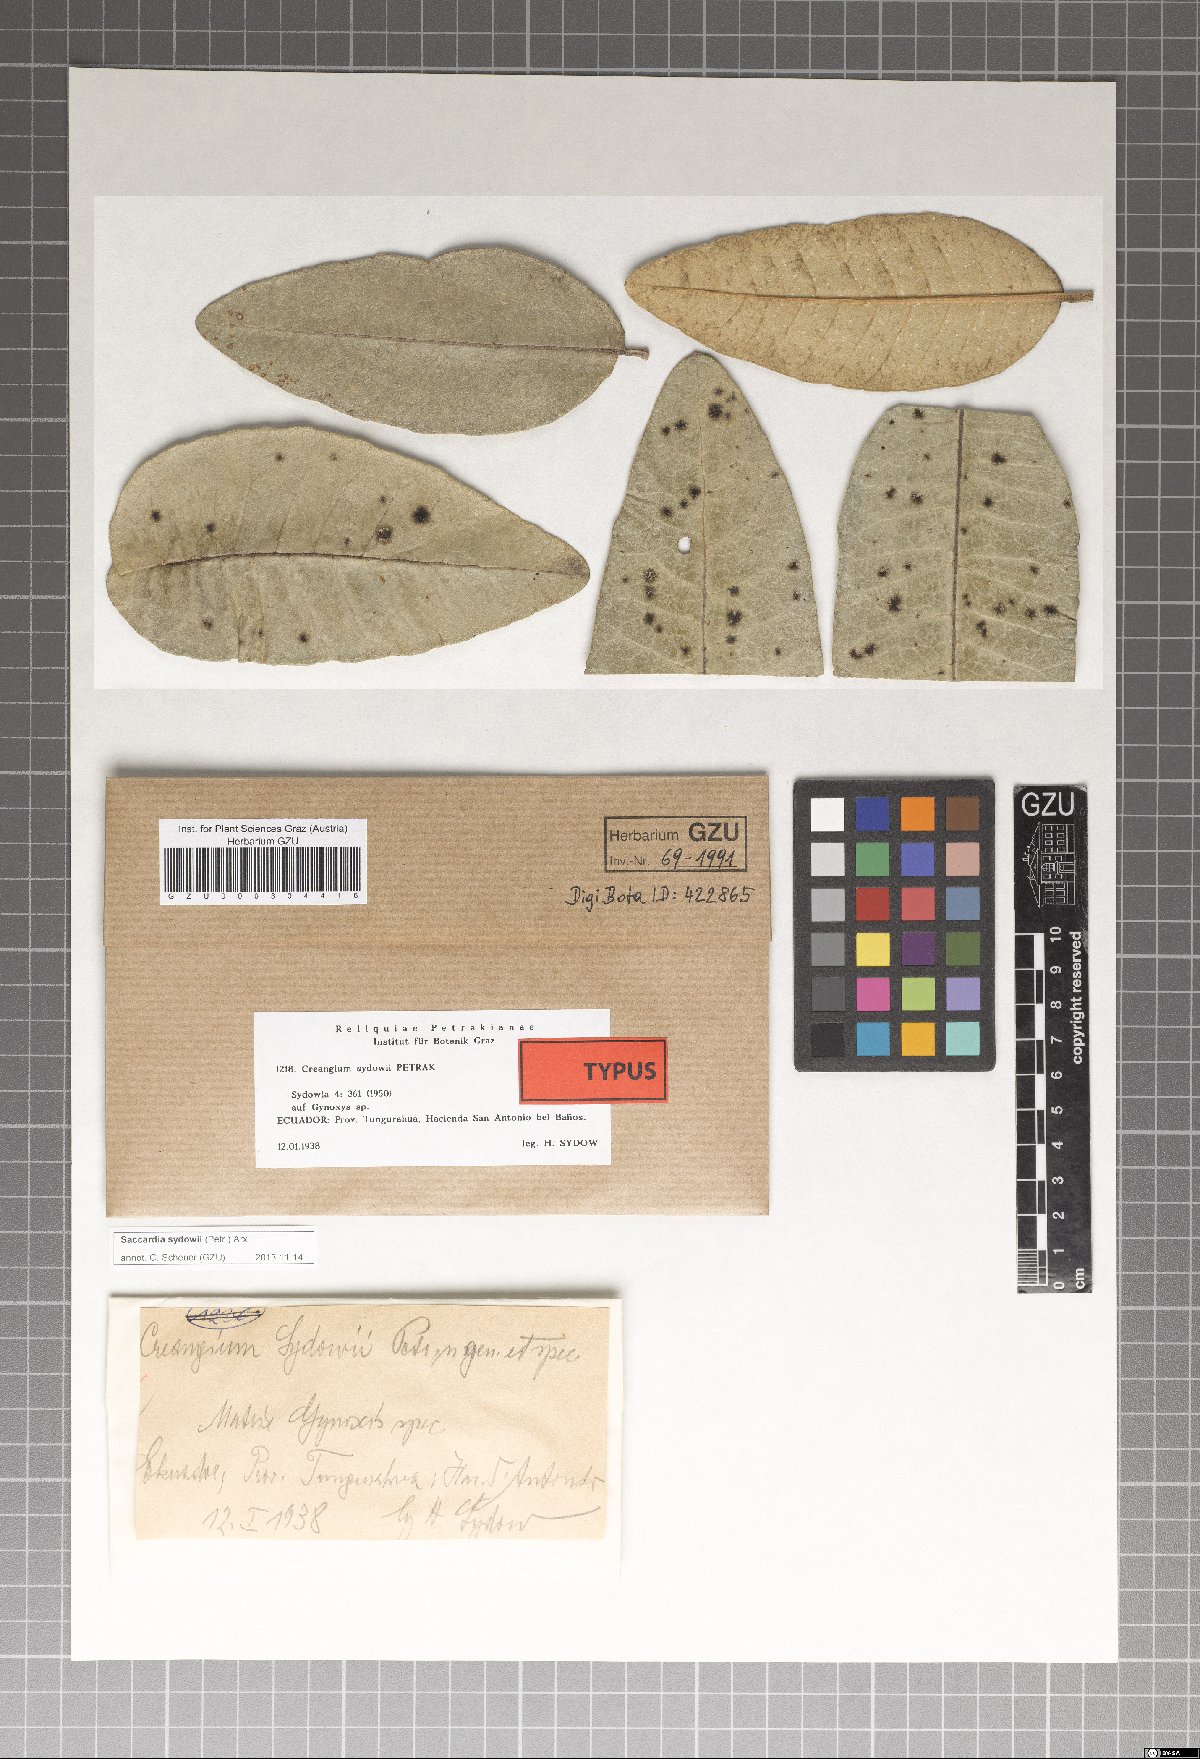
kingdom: Fungi
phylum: Ascomycota
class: Dothideomycetes
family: Saccardiaceae
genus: Saccardia
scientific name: Saccardia sydowii
